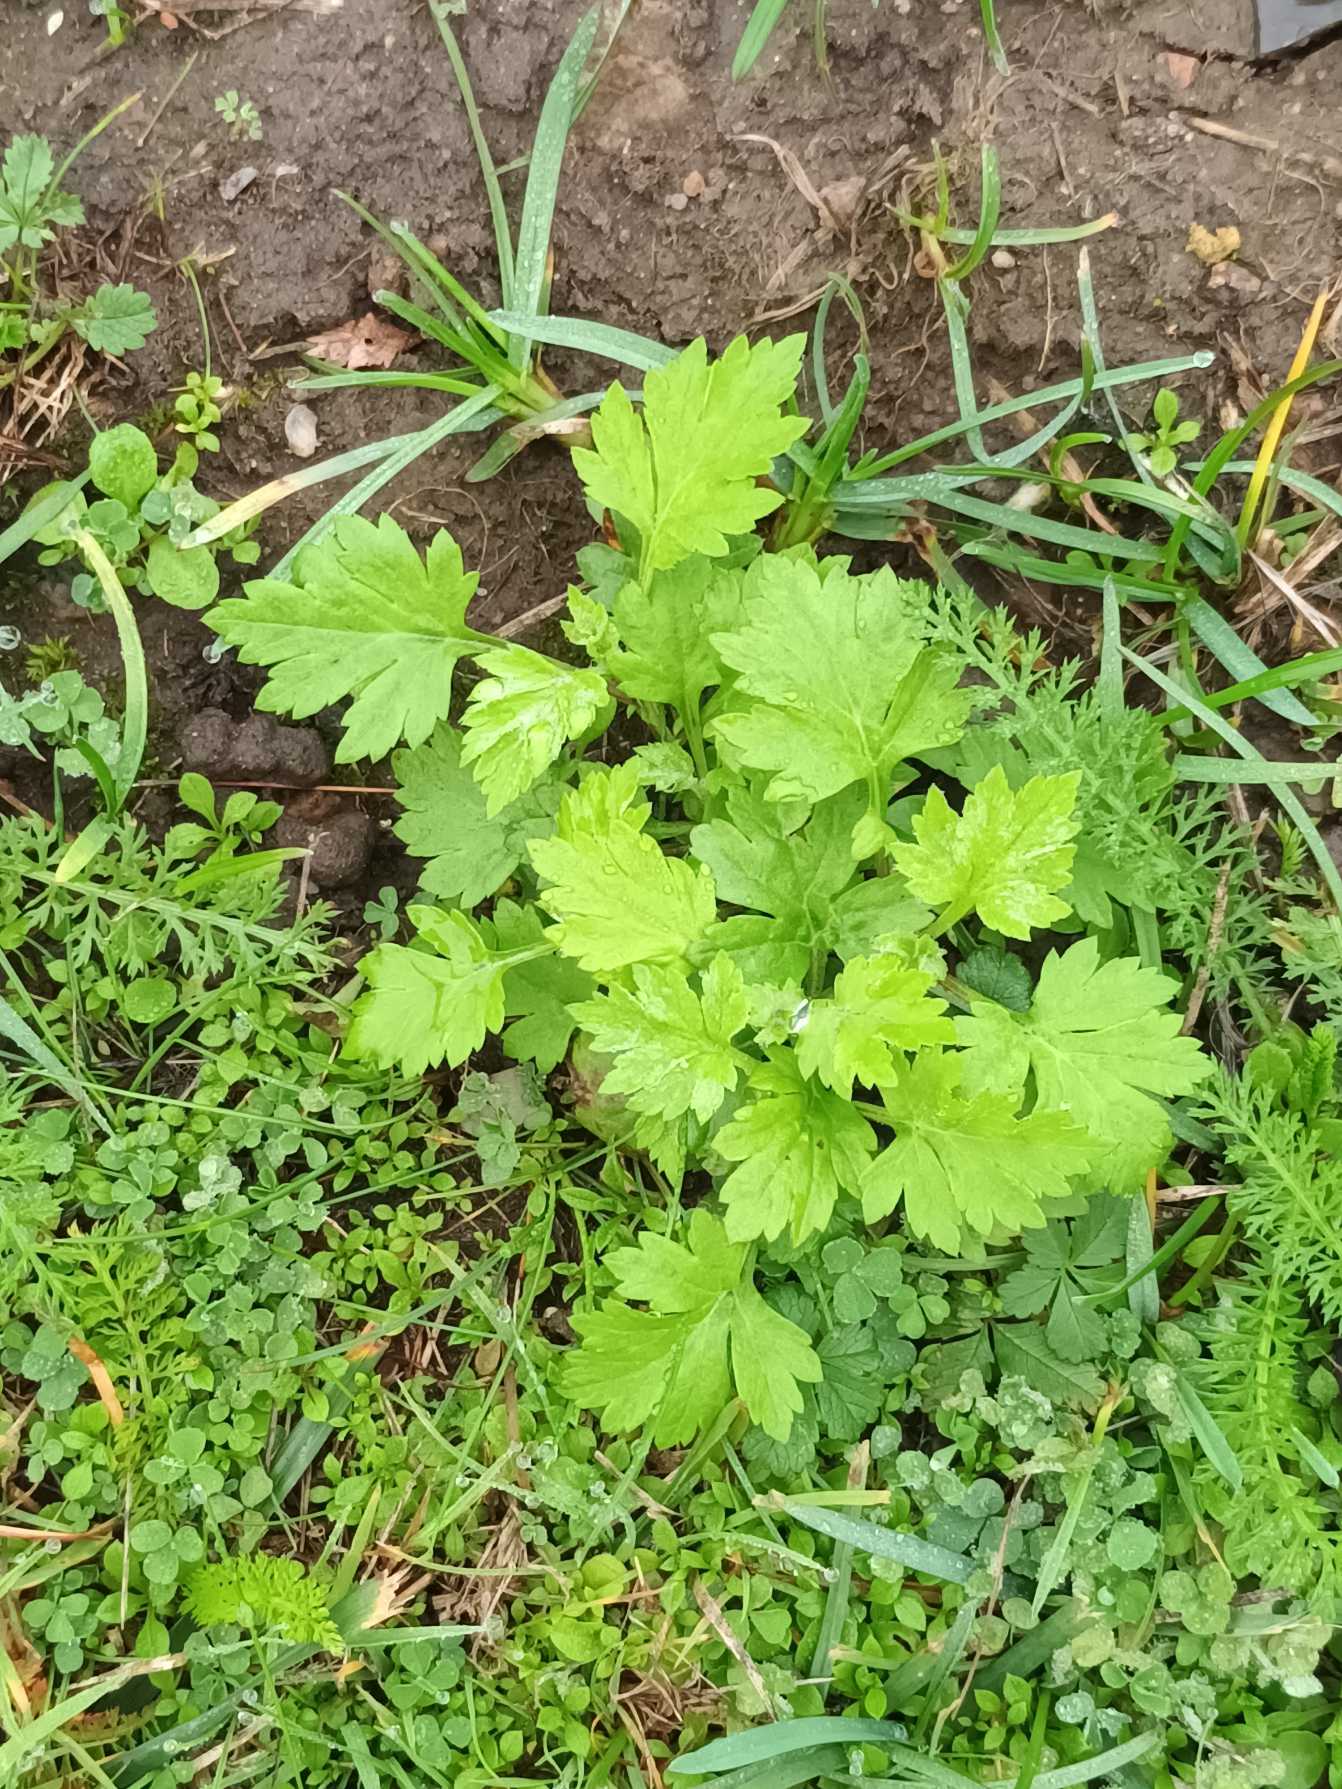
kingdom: Plantae
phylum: Tracheophyta
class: Magnoliopsida
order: Asterales
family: Asteraceae
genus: Artemisia
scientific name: Artemisia vulgaris
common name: Grå-bynke
